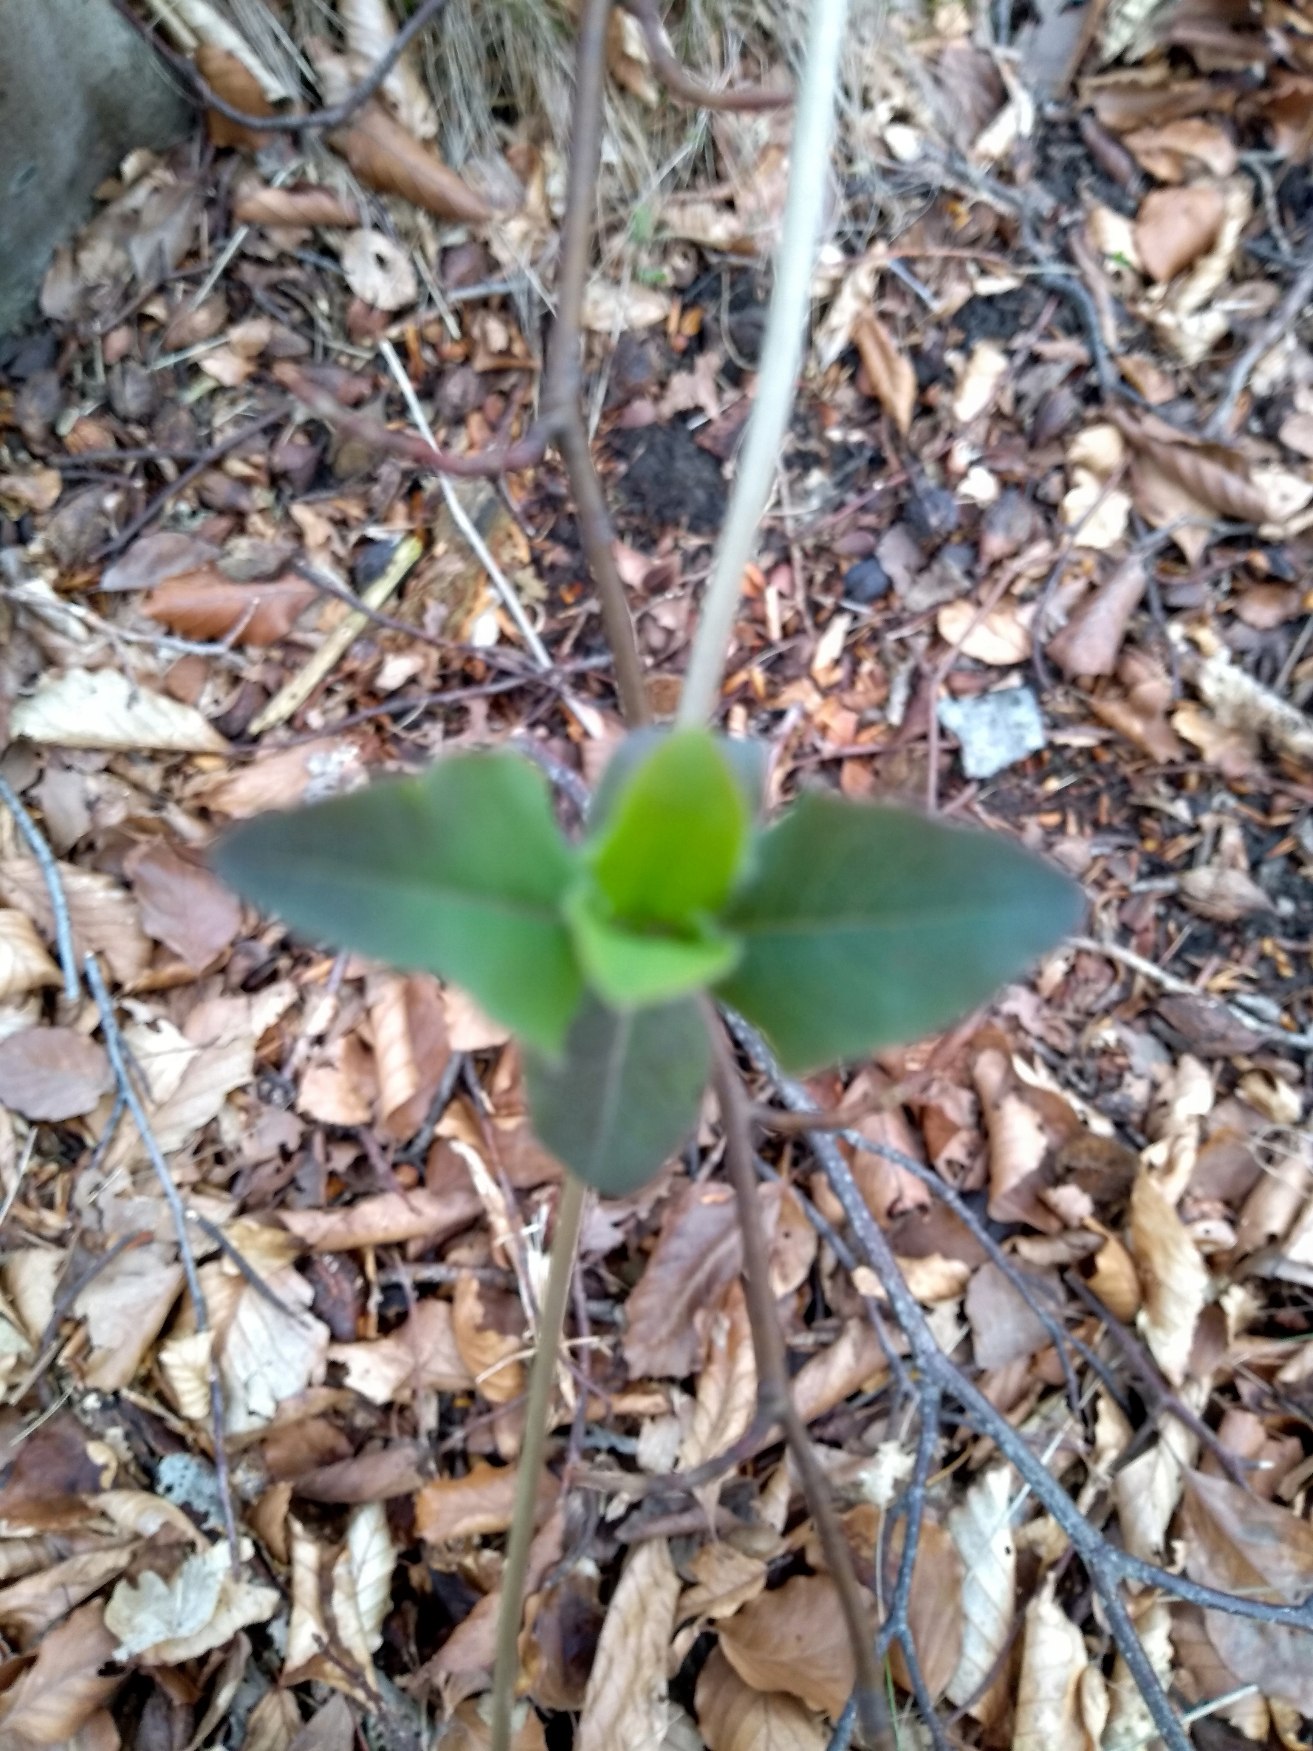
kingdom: Plantae
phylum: Tracheophyta
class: Magnoliopsida
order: Dipsacales
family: Caprifoliaceae
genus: Lonicera
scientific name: Lonicera periclymenum
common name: Almindelig gedeblad
